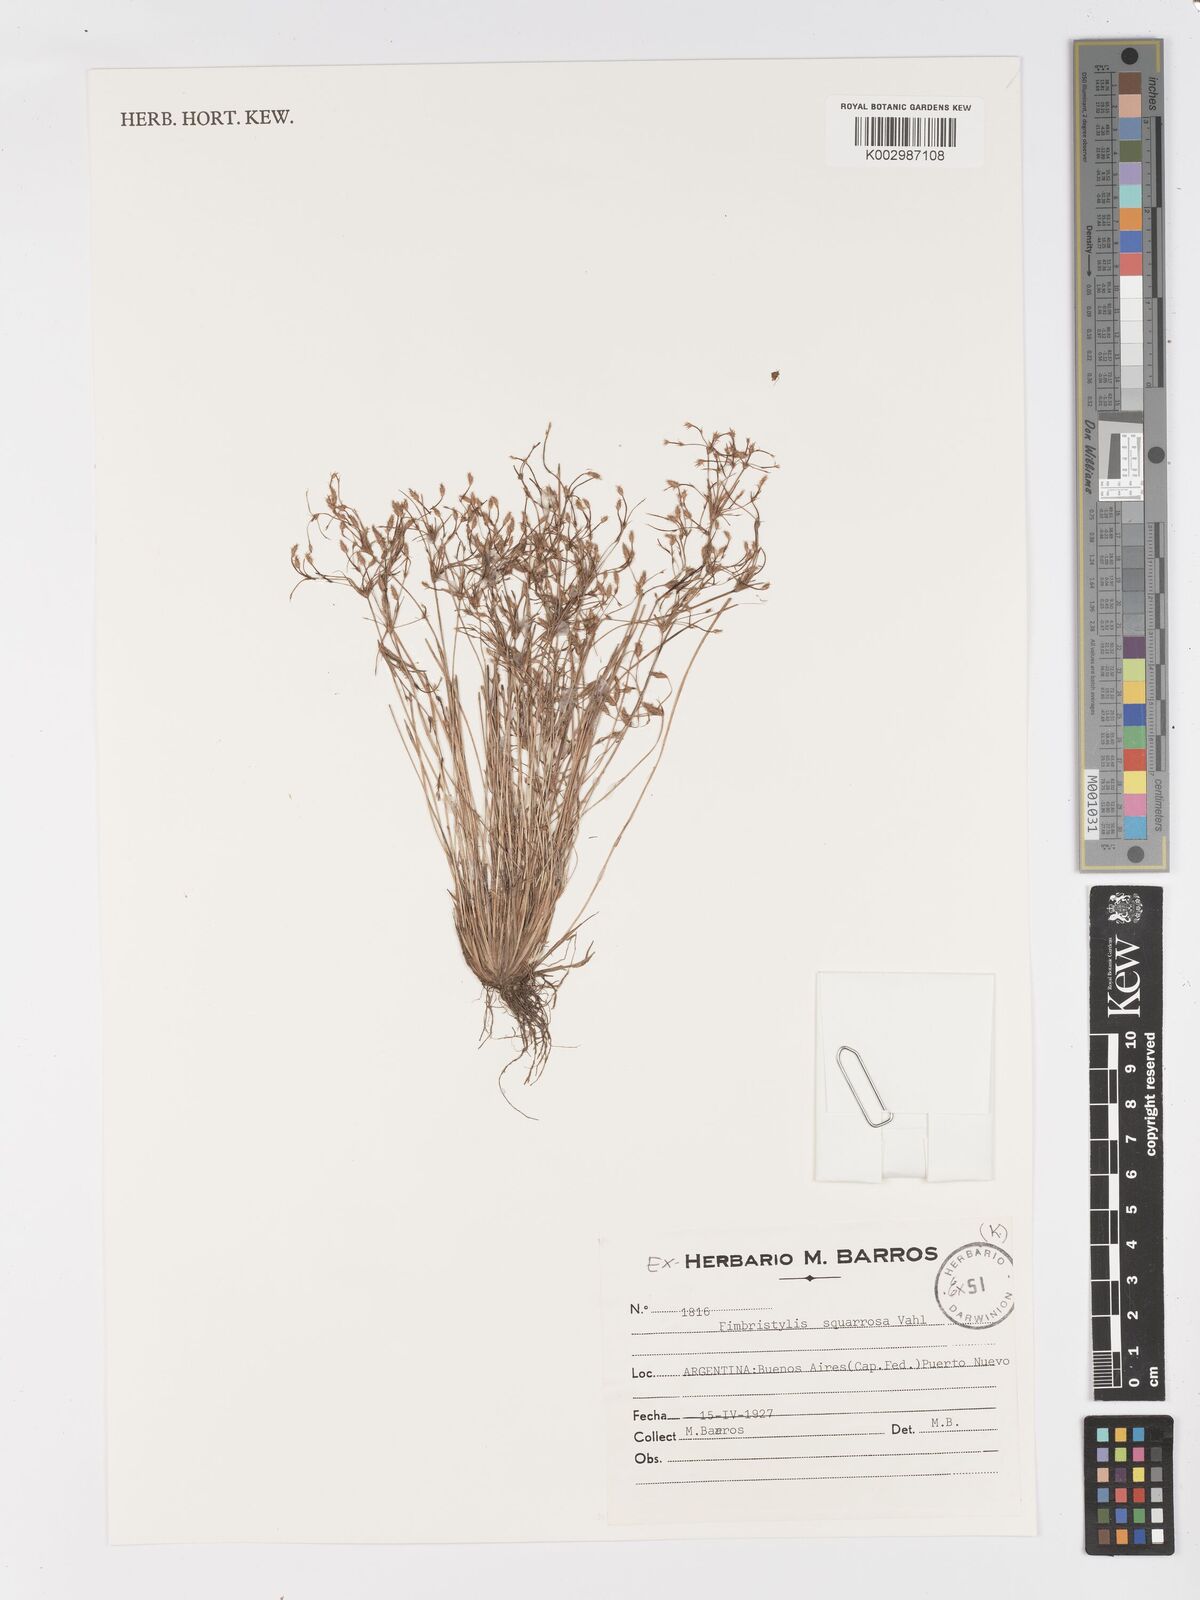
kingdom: Plantae
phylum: Tracheophyta
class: Liliopsida
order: Poales
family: Cyperaceae
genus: Fimbristylis
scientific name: Fimbristylis squarrosa
